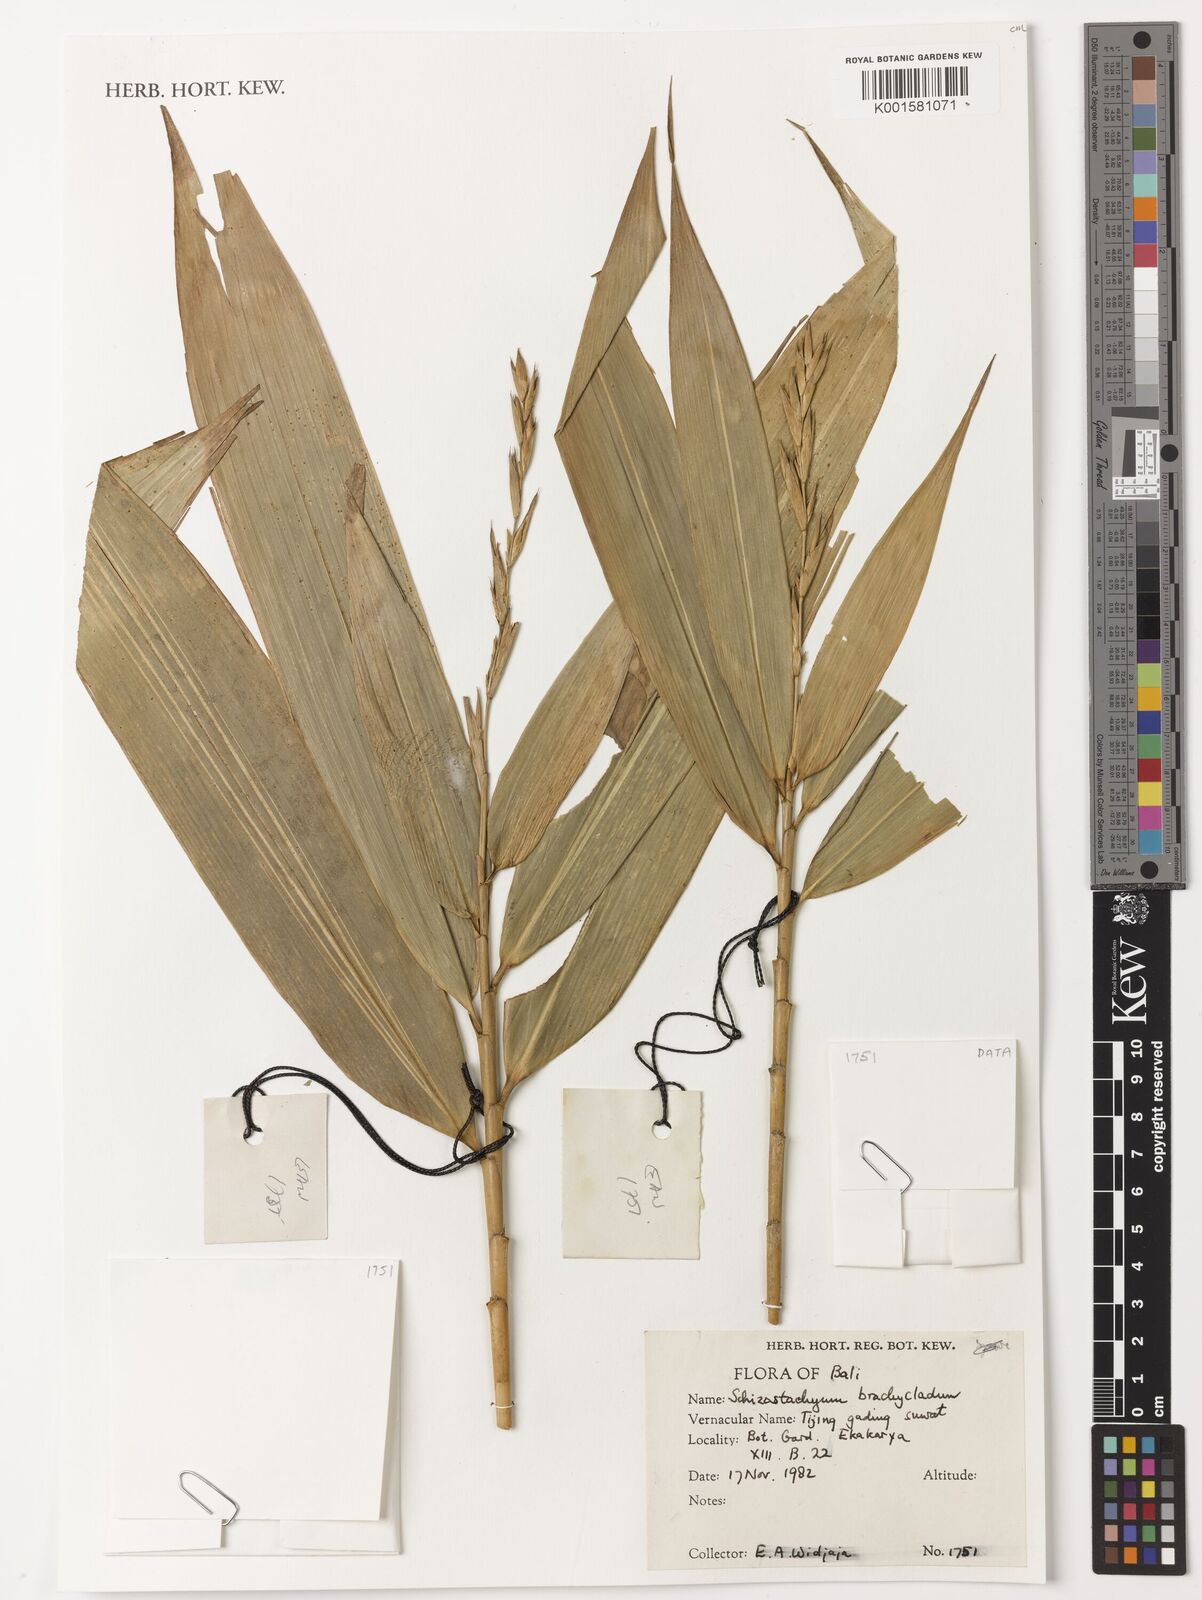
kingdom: Plantae
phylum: Tracheophyta
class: Liliopsida
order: Poales
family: Poaceae
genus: Schizostachyum
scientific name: Schizostachyum brachycladum
